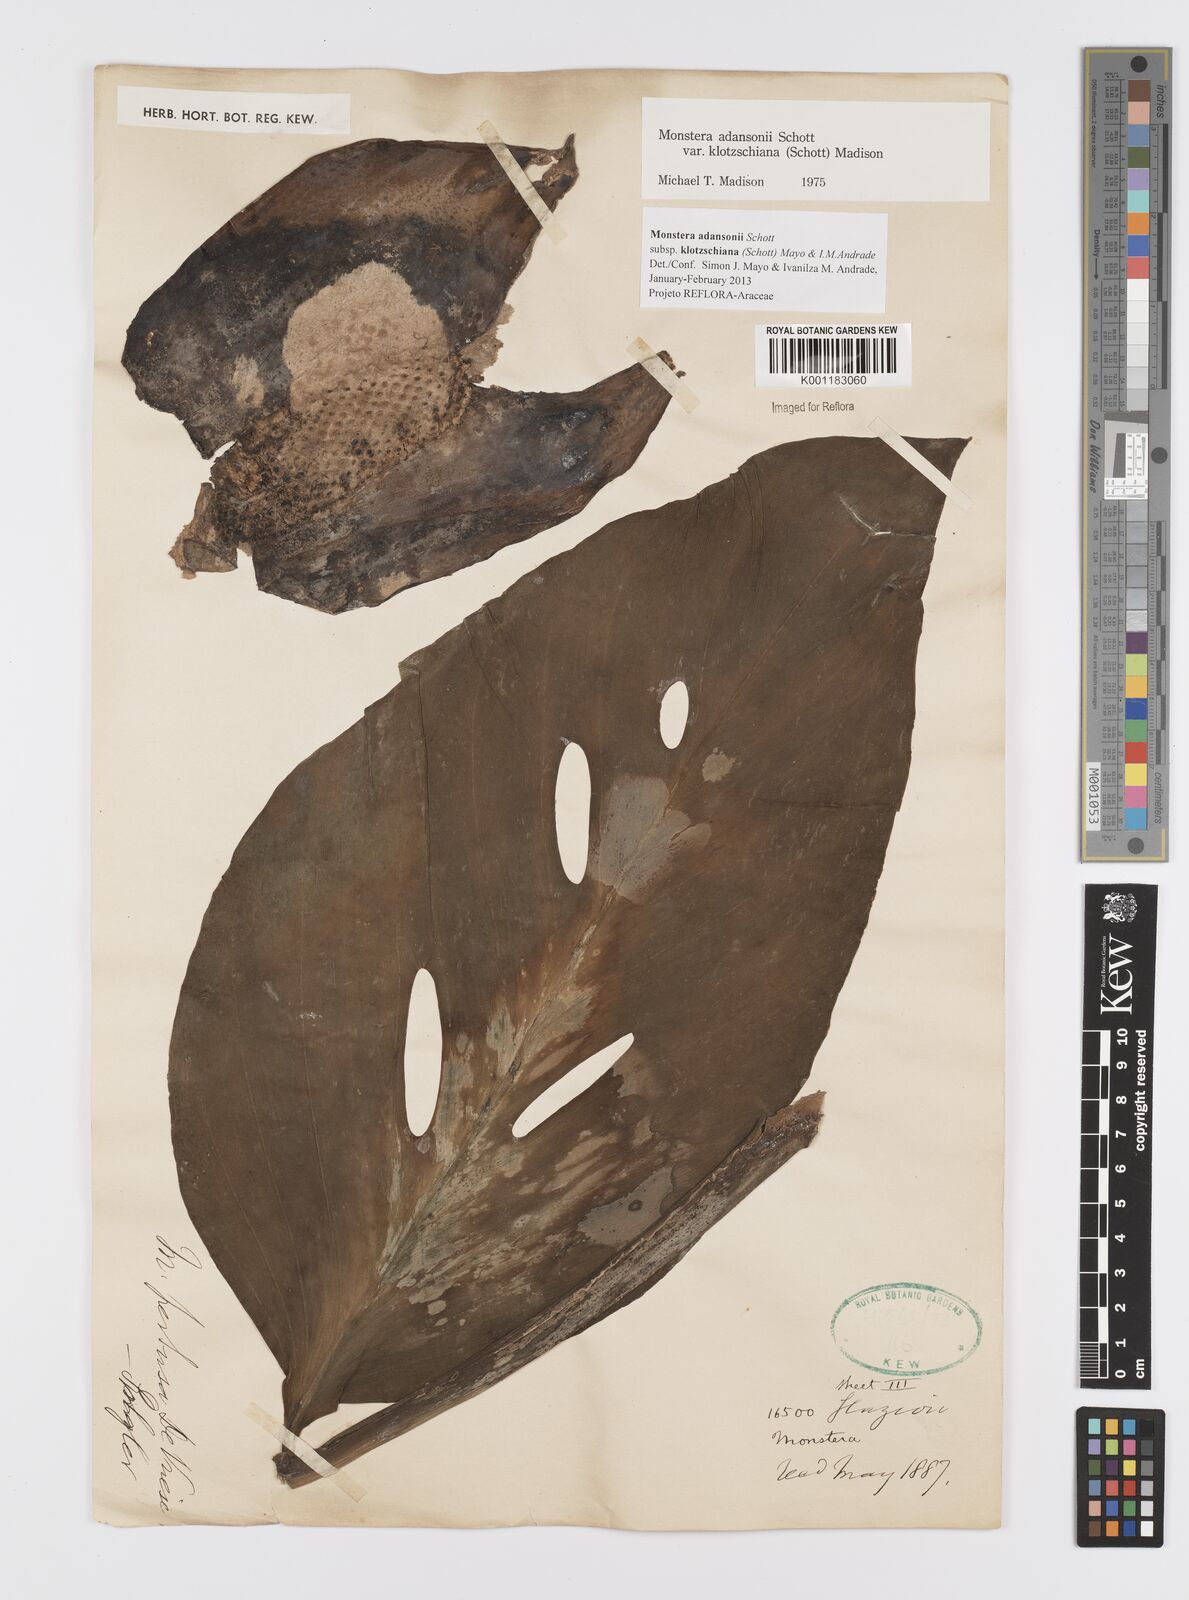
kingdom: Plantae
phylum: Tracheophyta
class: Liliopsida
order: Alismatales
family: Araceae
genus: Monstera
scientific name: Monstera adansonii
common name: Tarovine
